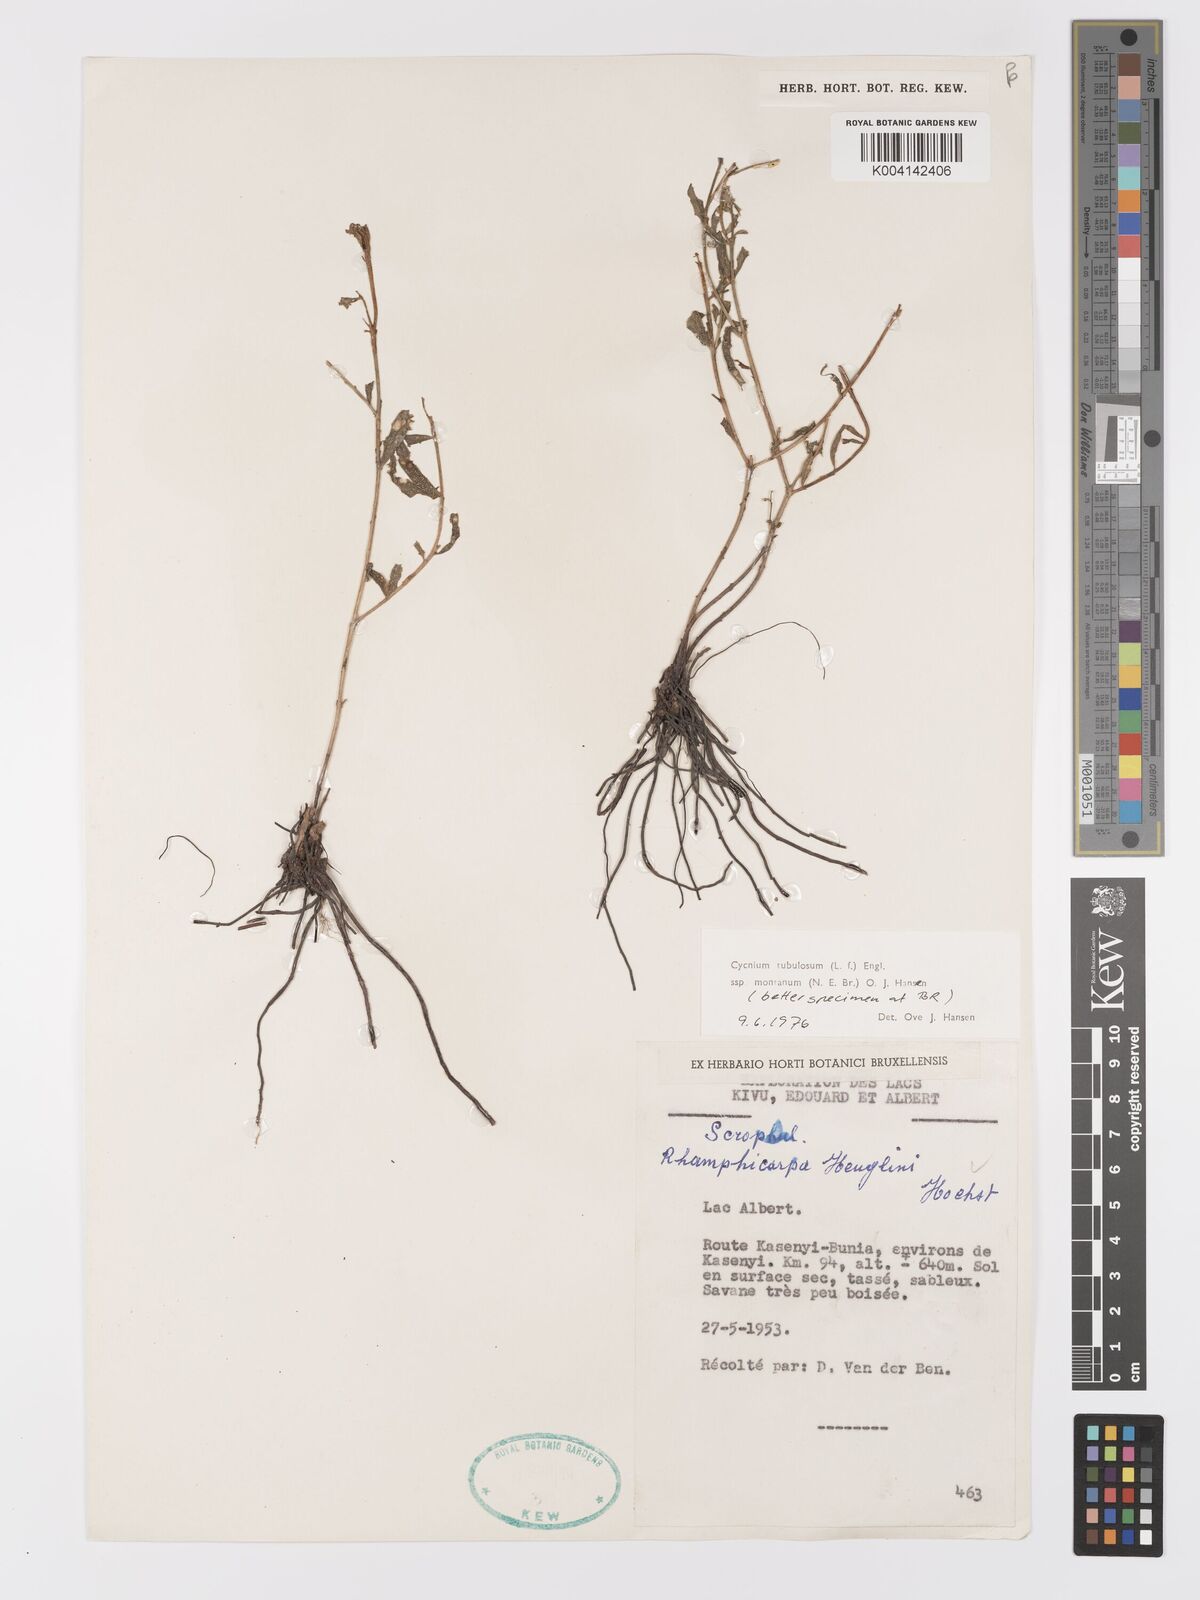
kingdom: Plantae
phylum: Tracheophyta
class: Magnoliopsida
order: Lamiales
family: Orobanchaceae
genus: Cycnium
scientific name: Cycnium tubulosum
